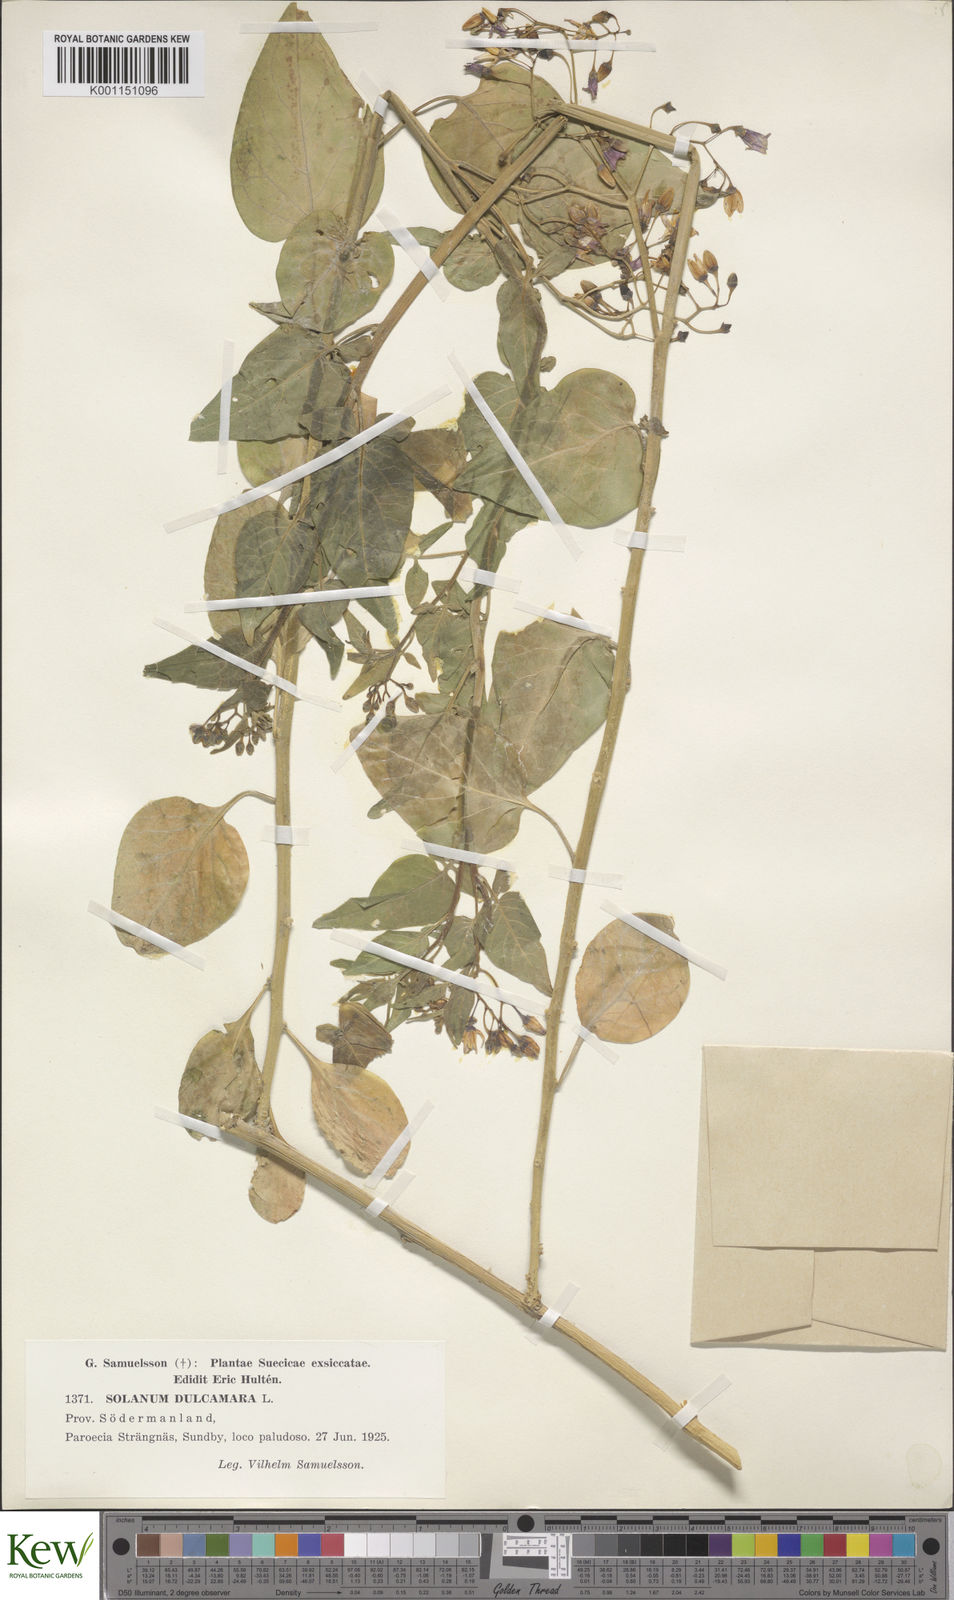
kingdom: Plantae
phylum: Tracheophyta
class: Magnoliopsida
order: Solanales
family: Solanaceae
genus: Solanum
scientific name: Solanum dulcamara
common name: Climbing nightshade
